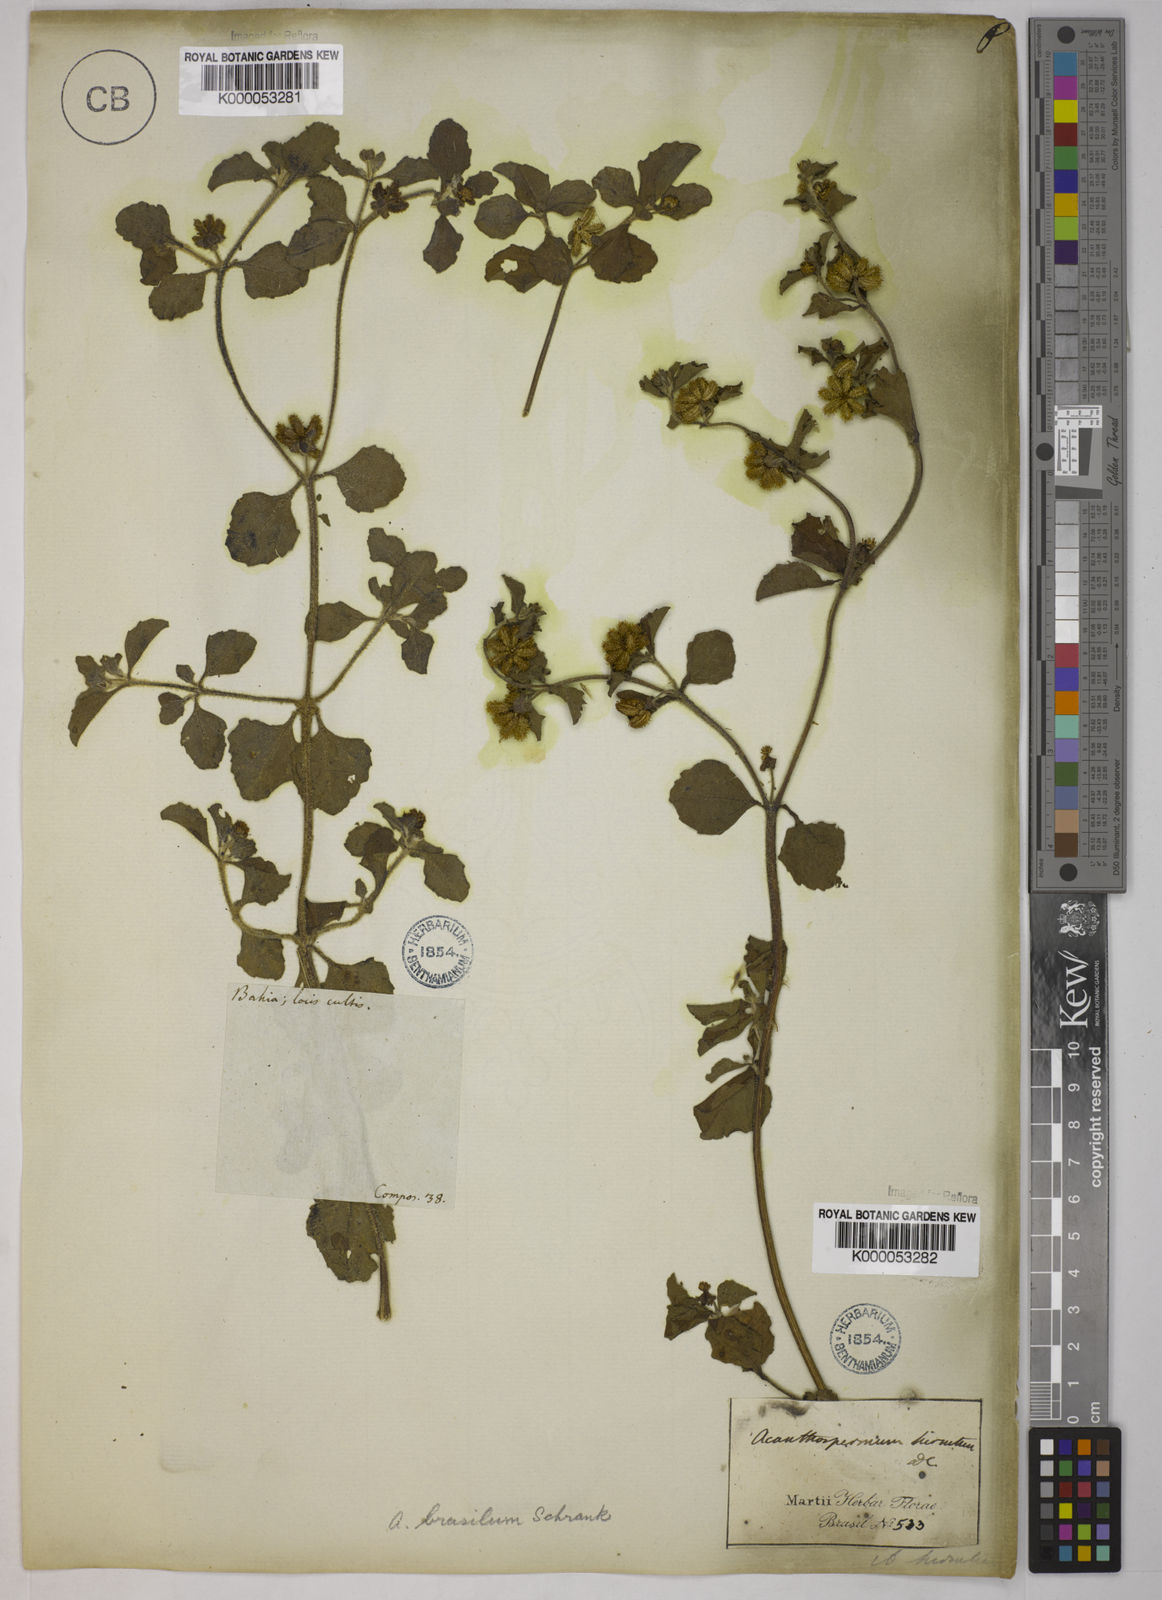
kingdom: Plantae
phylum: Tracheophyta
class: Magnoliopsida
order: Asterales
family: Asteraceae
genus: Acanthospermum
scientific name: Acanthospermum australe
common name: Paraguayan starbur
